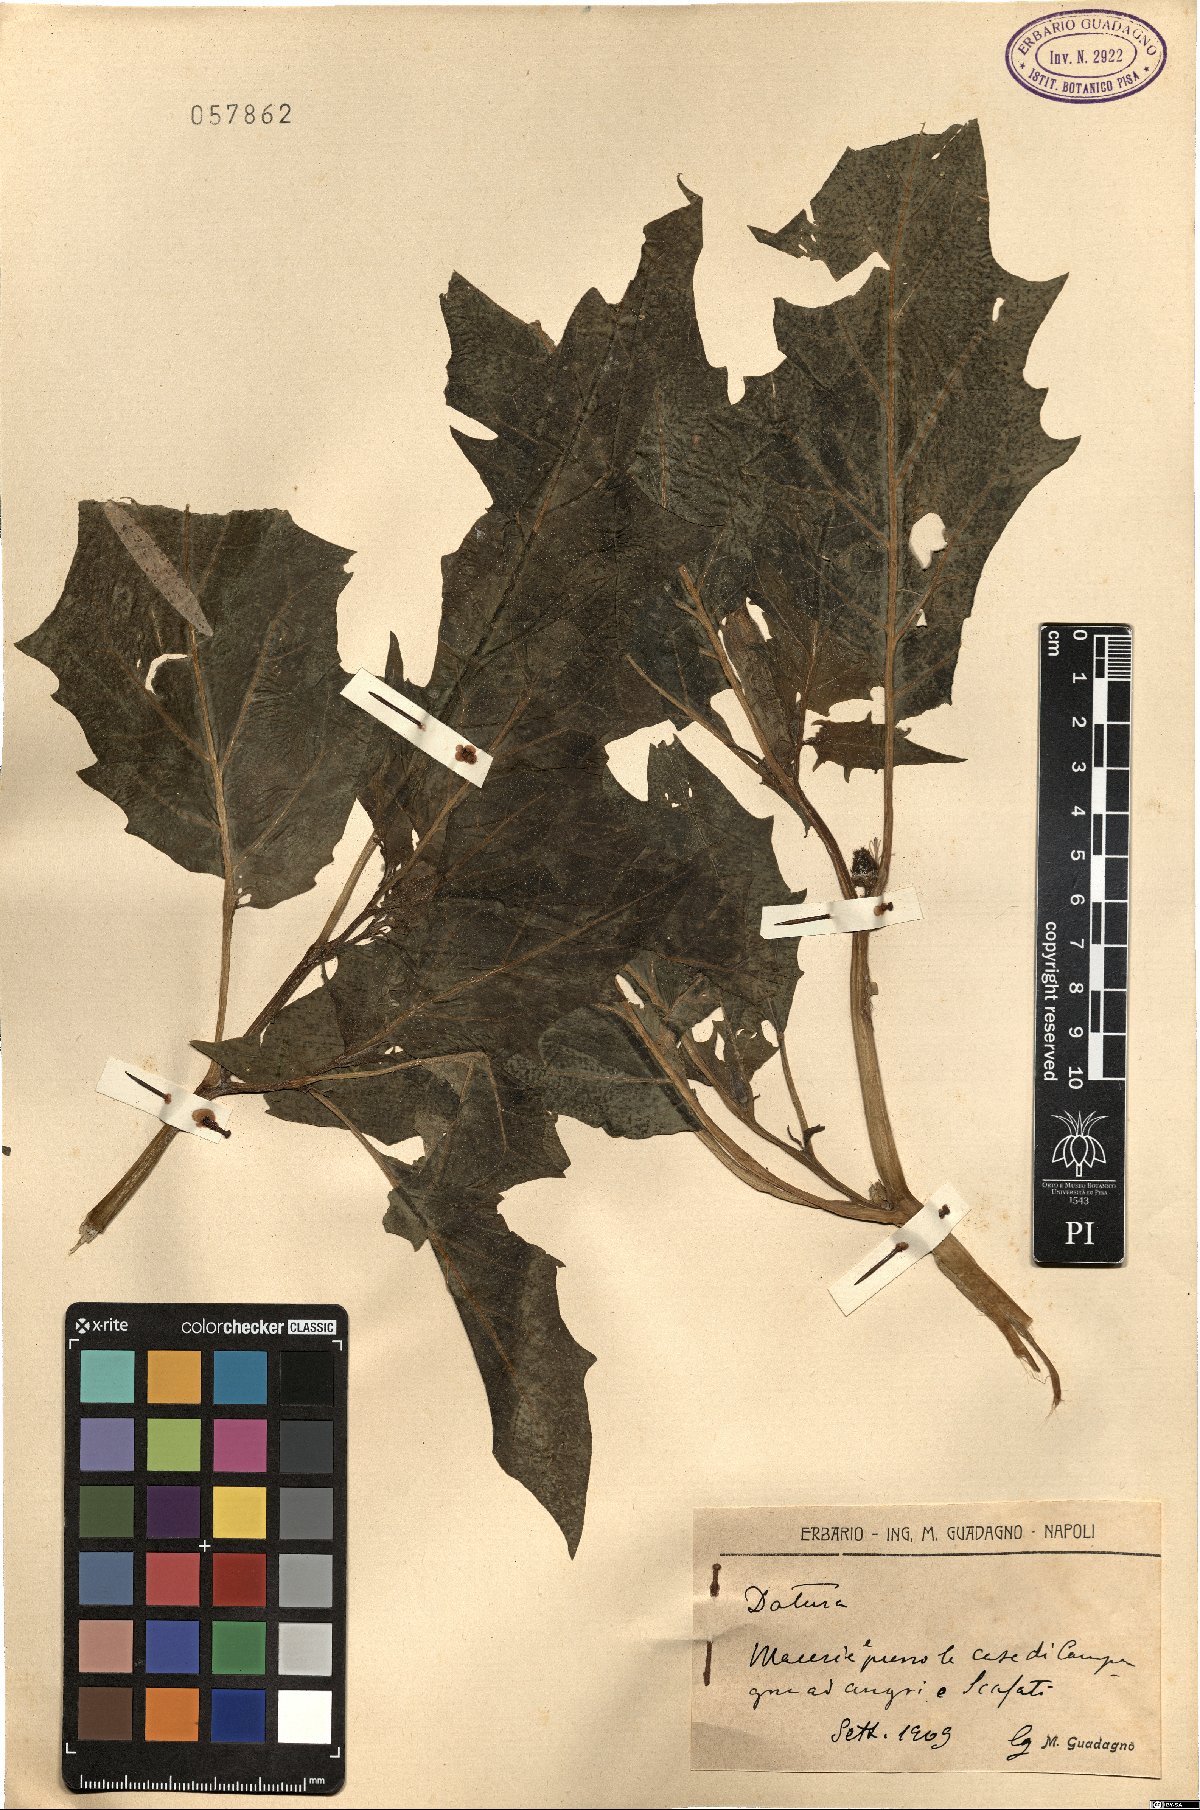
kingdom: Plantae
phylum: Tracheophyta
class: Magnoliopsida
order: Solanales
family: Solanaceae
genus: Datura
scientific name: Datura
